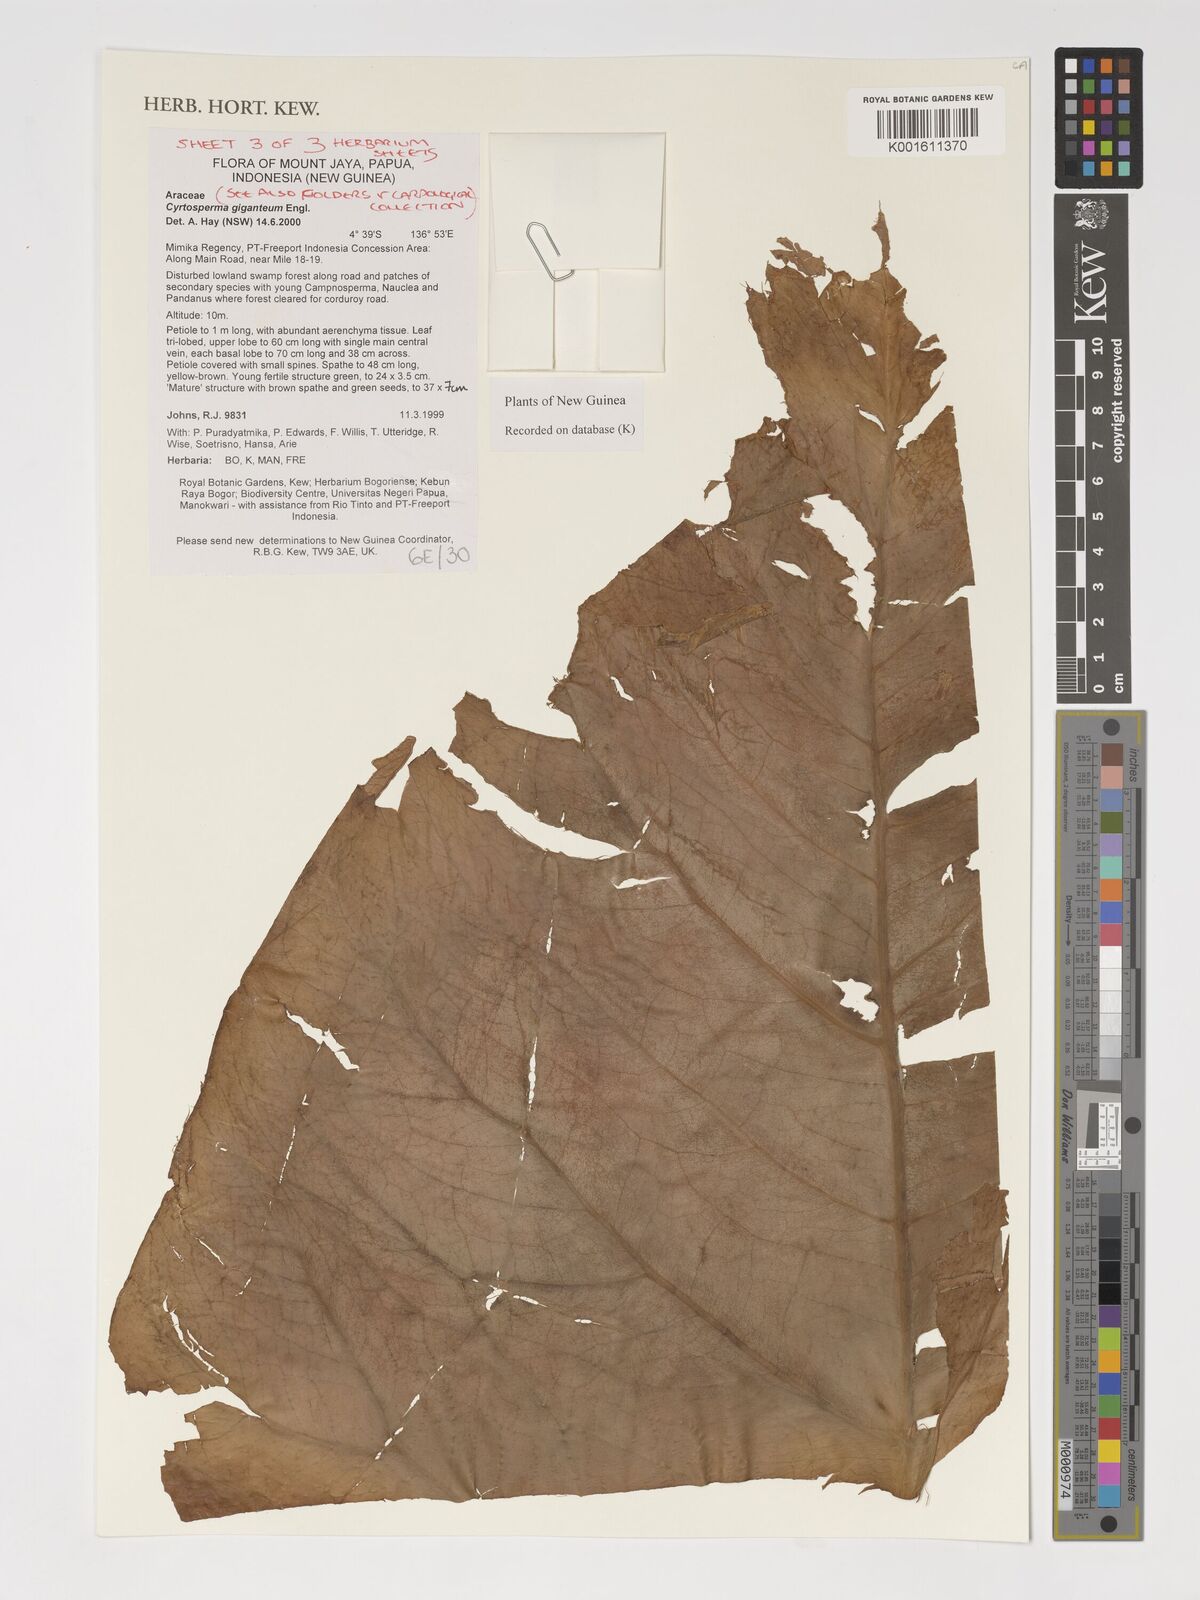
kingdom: Plantae
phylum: Tracheophyta
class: Liliopsida
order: Alismatales
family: Araceae
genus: Cyrtosperma
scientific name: Cyrtosperma giganteum
